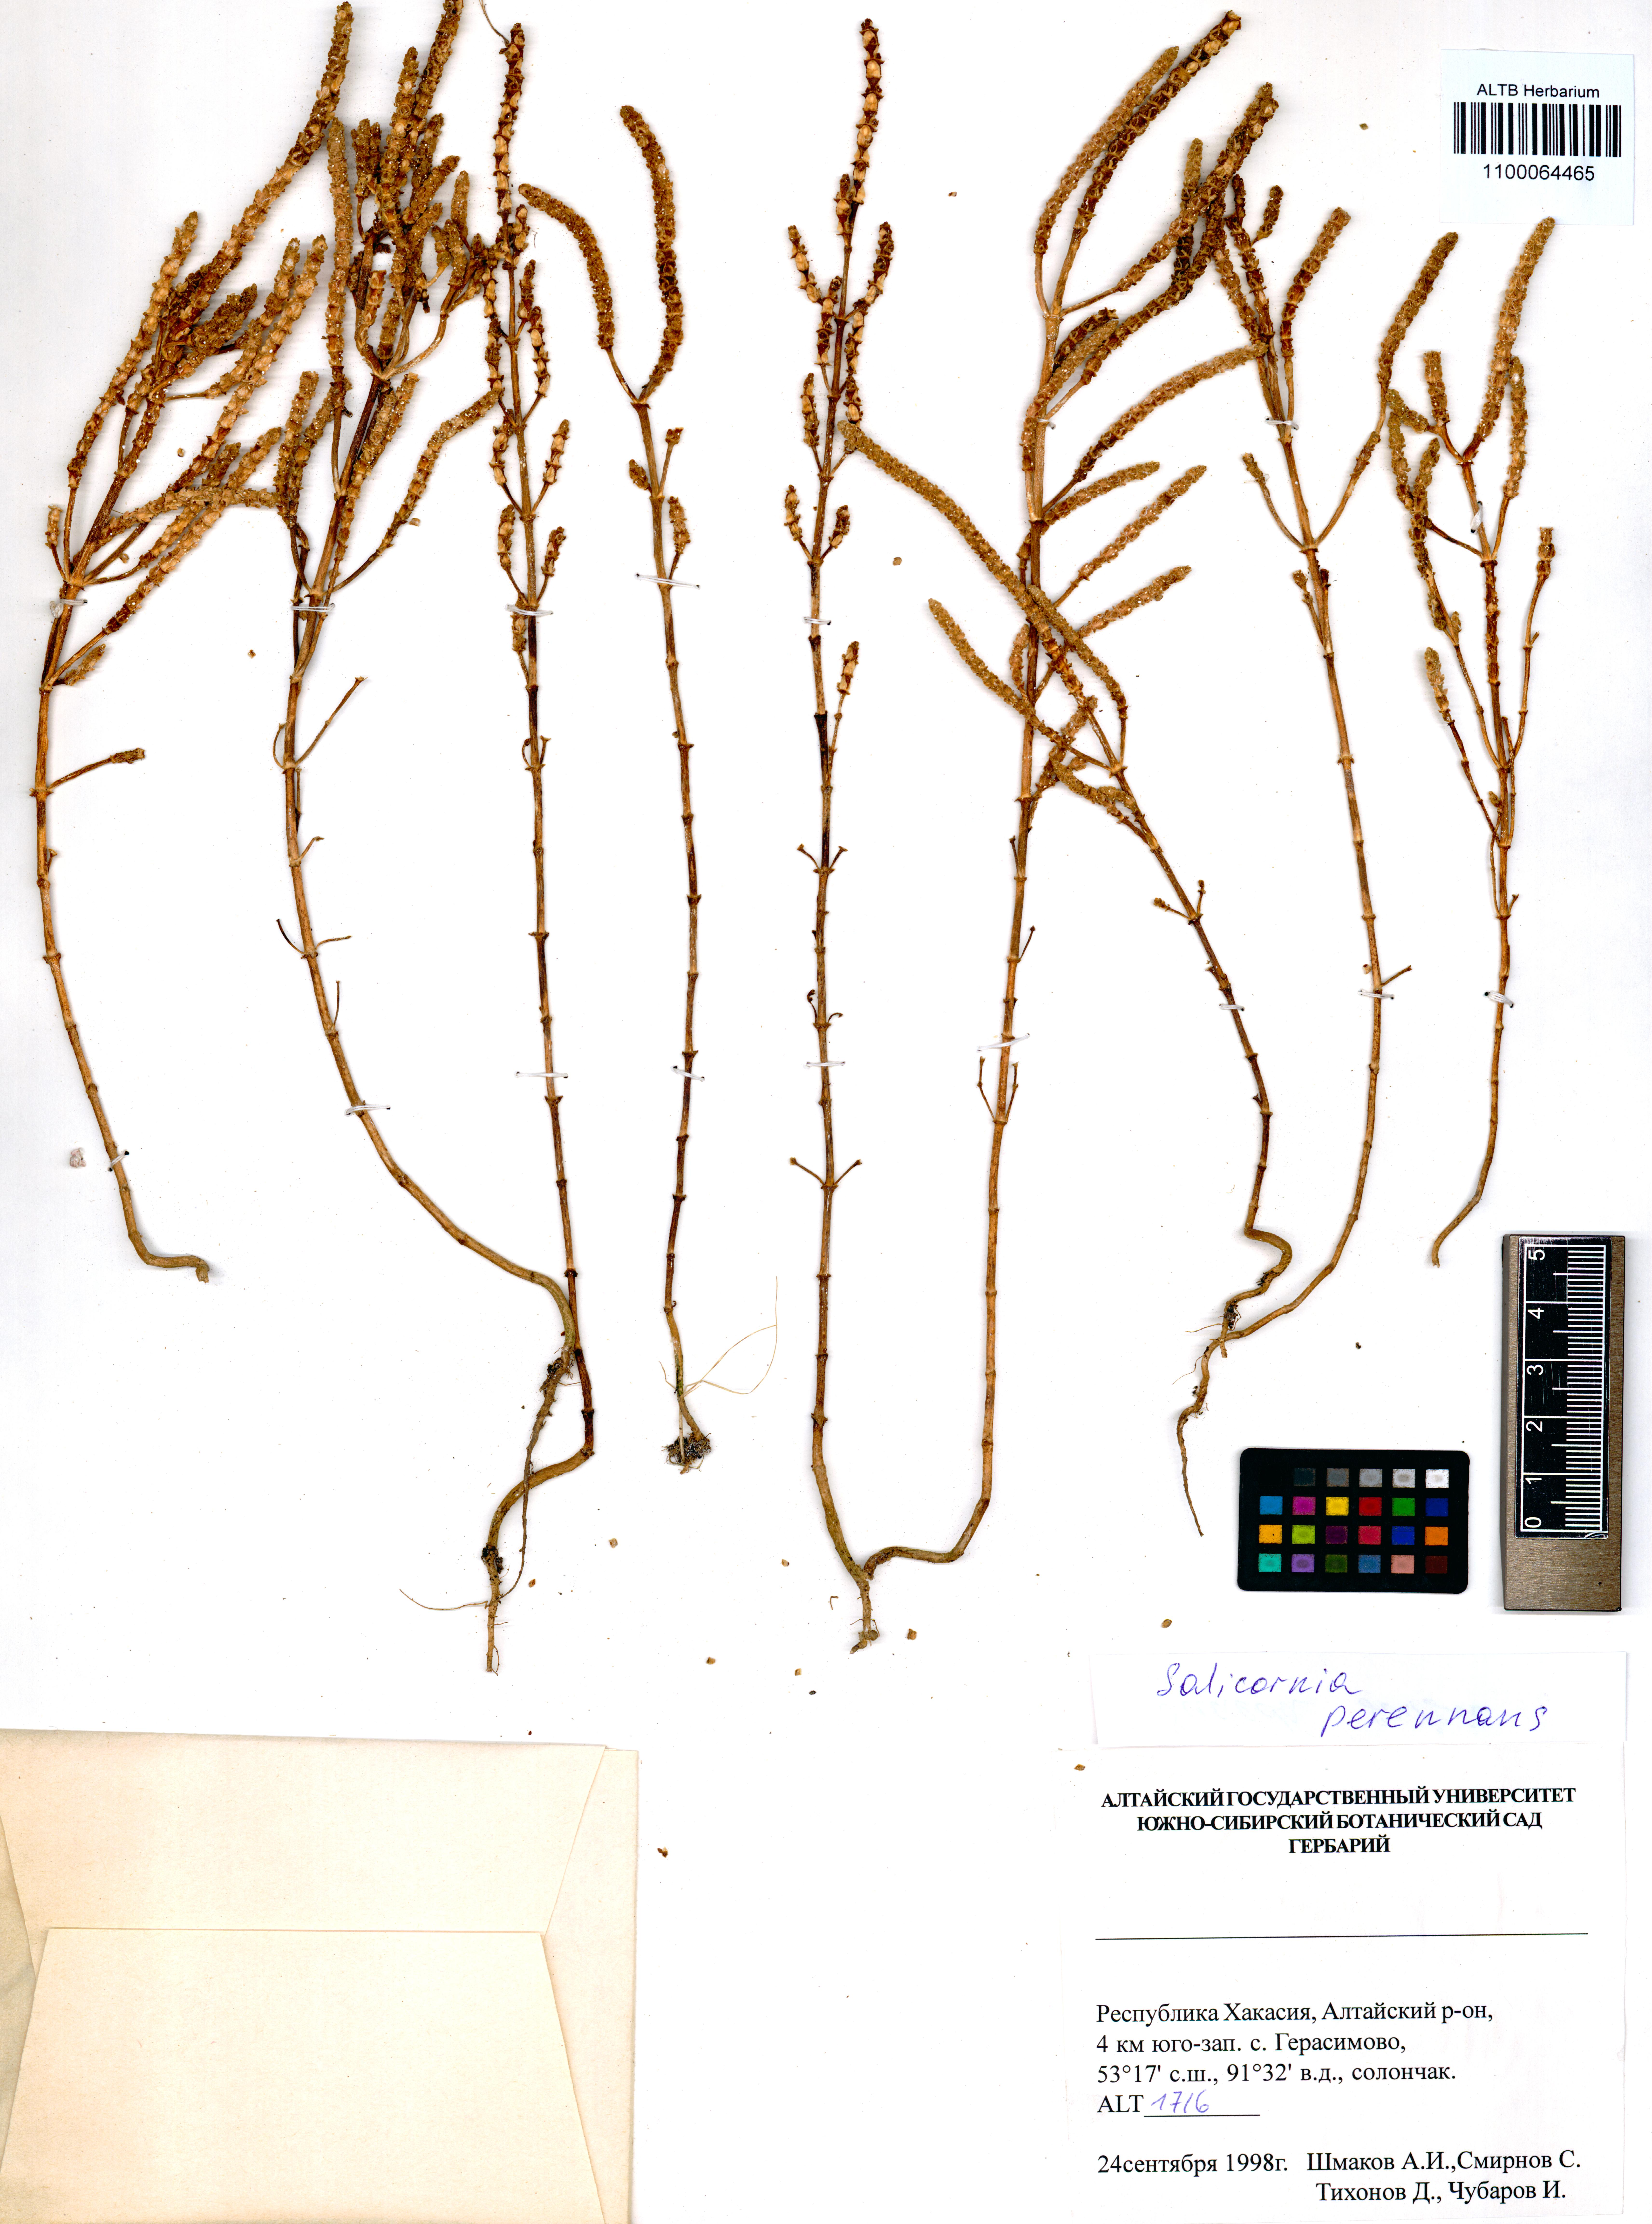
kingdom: Plantae
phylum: Tracheophyta
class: Magnoliopsida
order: Caryophyllales
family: Amaranthaceae
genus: Salicornia
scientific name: Salicornia perennans
